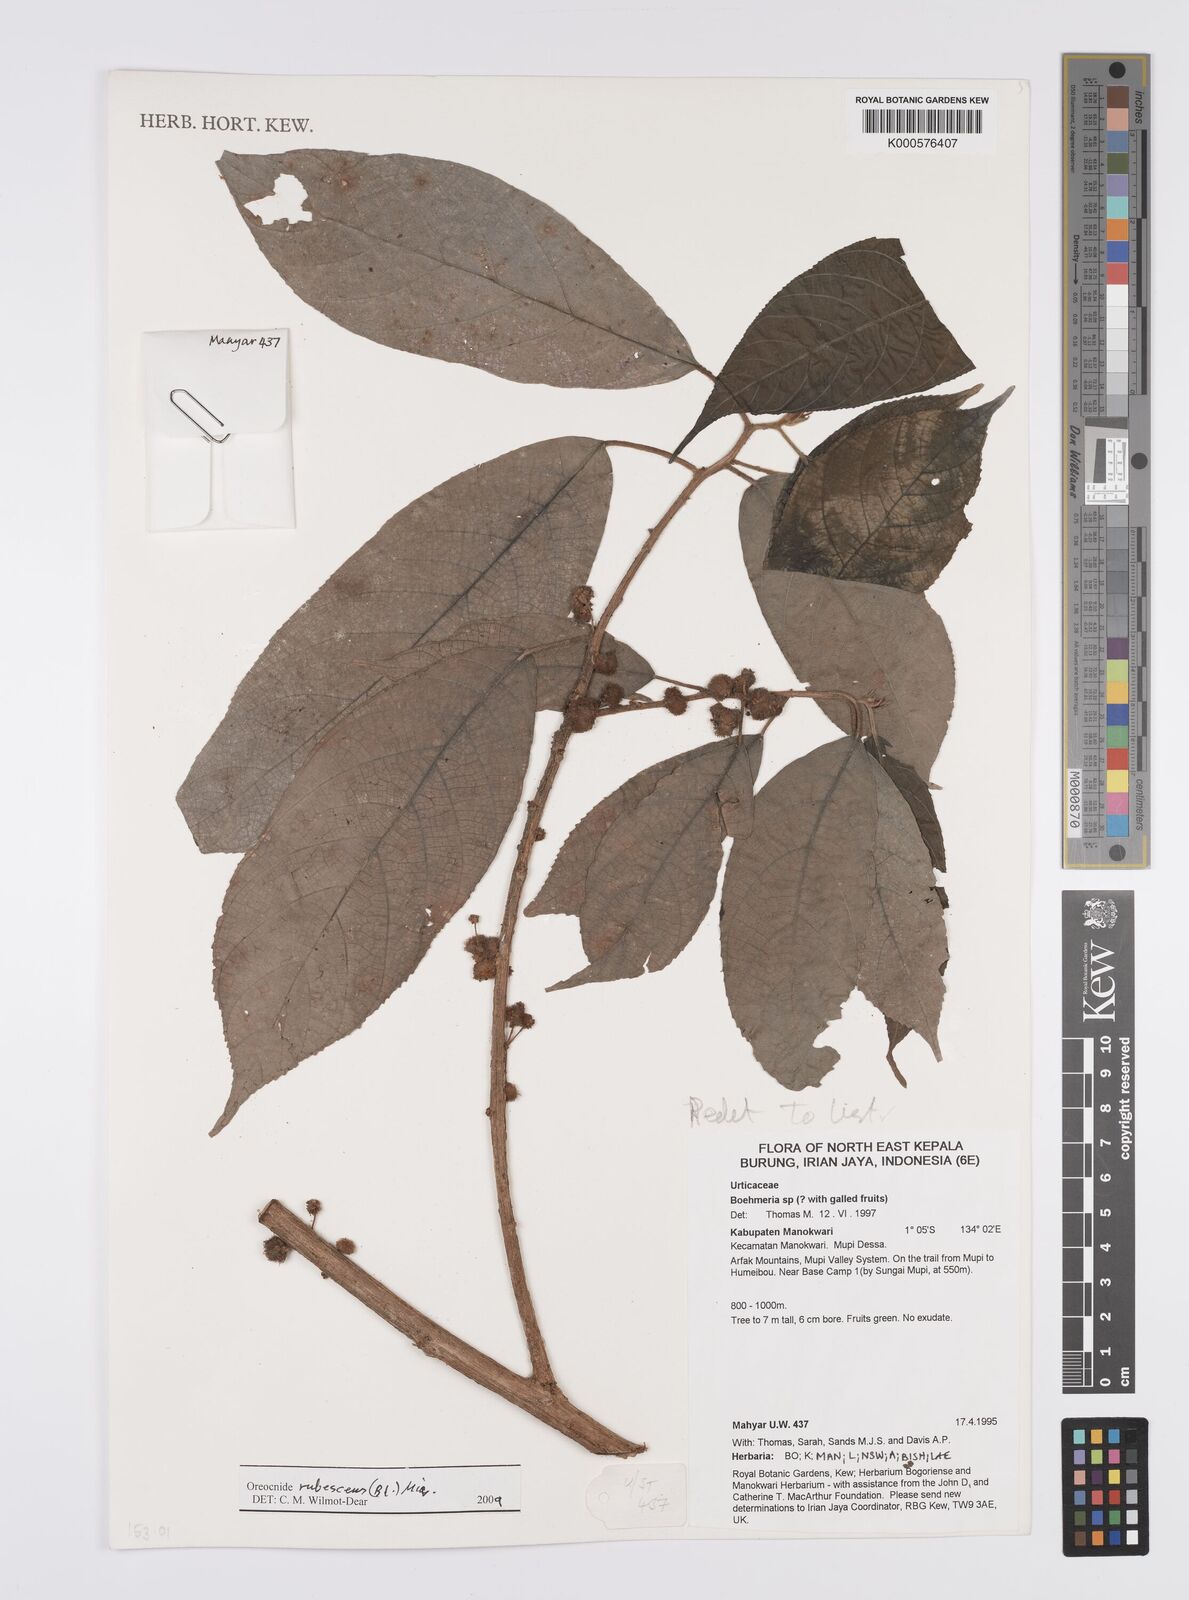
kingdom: Plantae
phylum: Tracheophyta
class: Magnoliopsida
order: Rosales
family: Urticaceae
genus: Oreocnide
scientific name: Oreocnide rubescens
